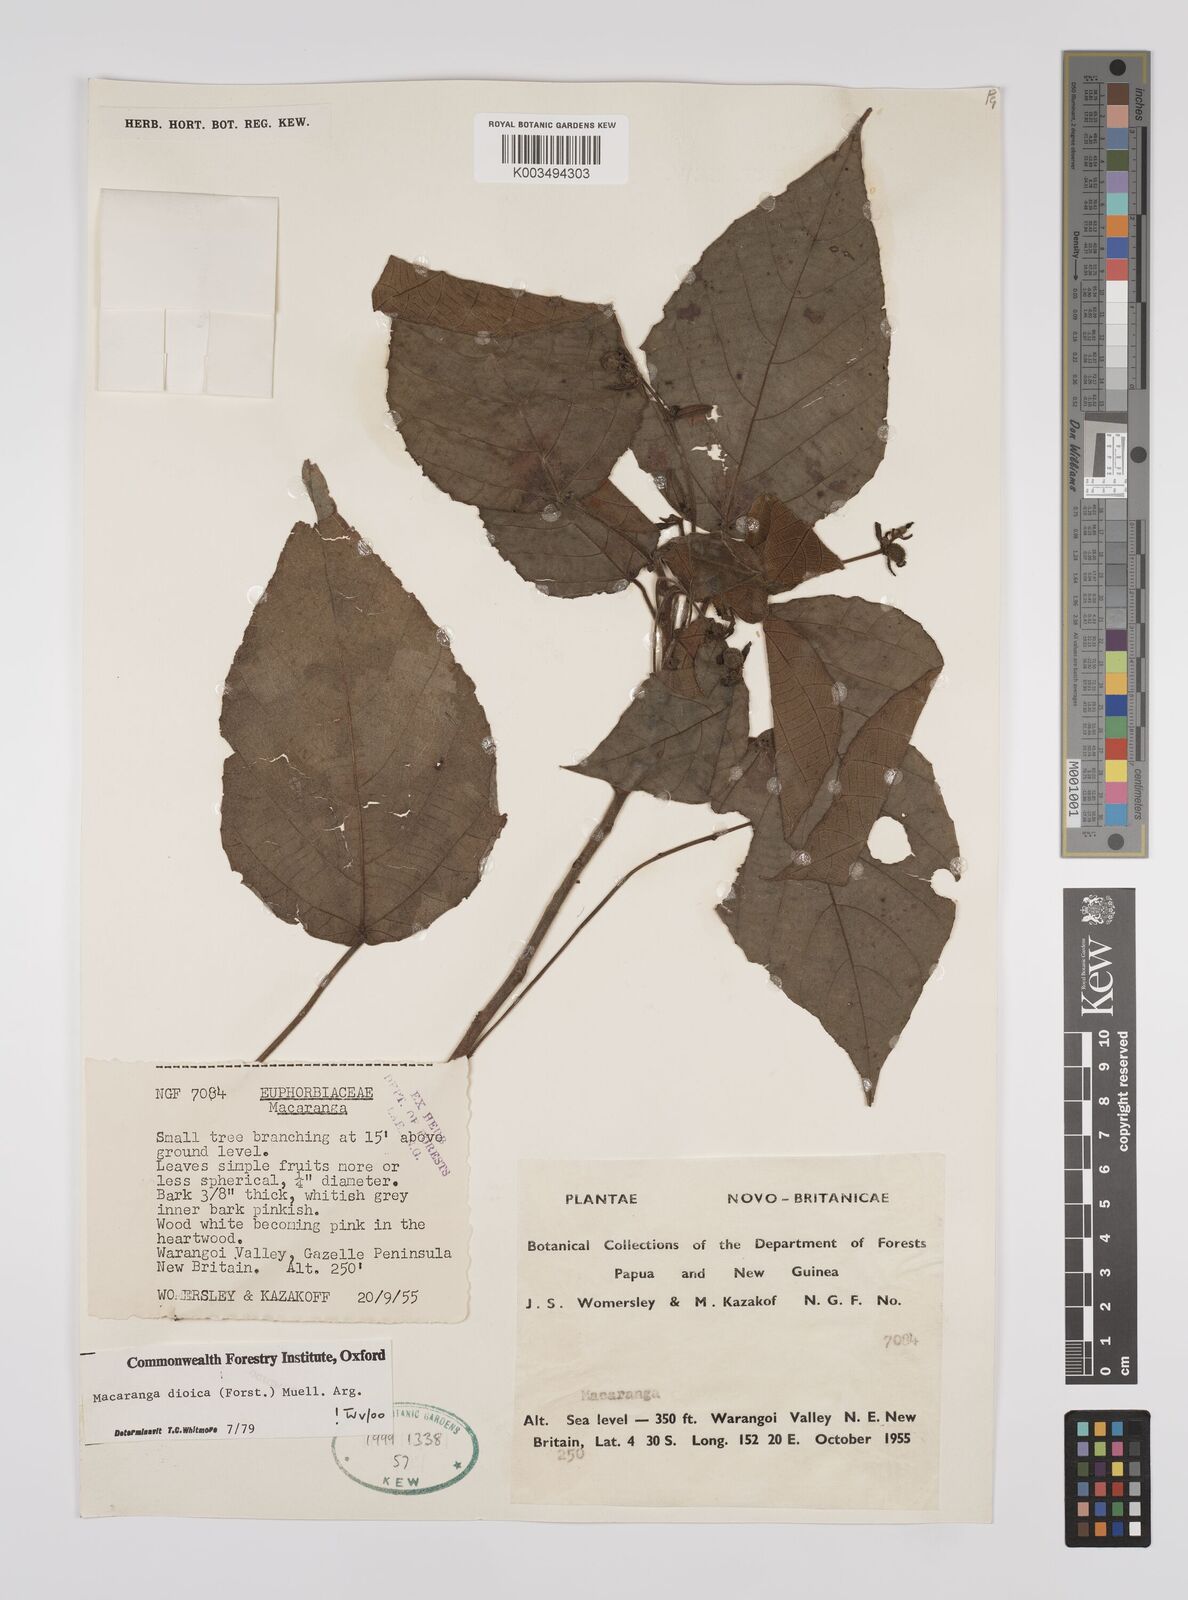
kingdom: Plantae
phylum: Tracheophyta
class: Magnoliopsida
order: Malpighiales
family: Euphorbiaceae
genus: Macaranga
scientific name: Macaranga dioica
